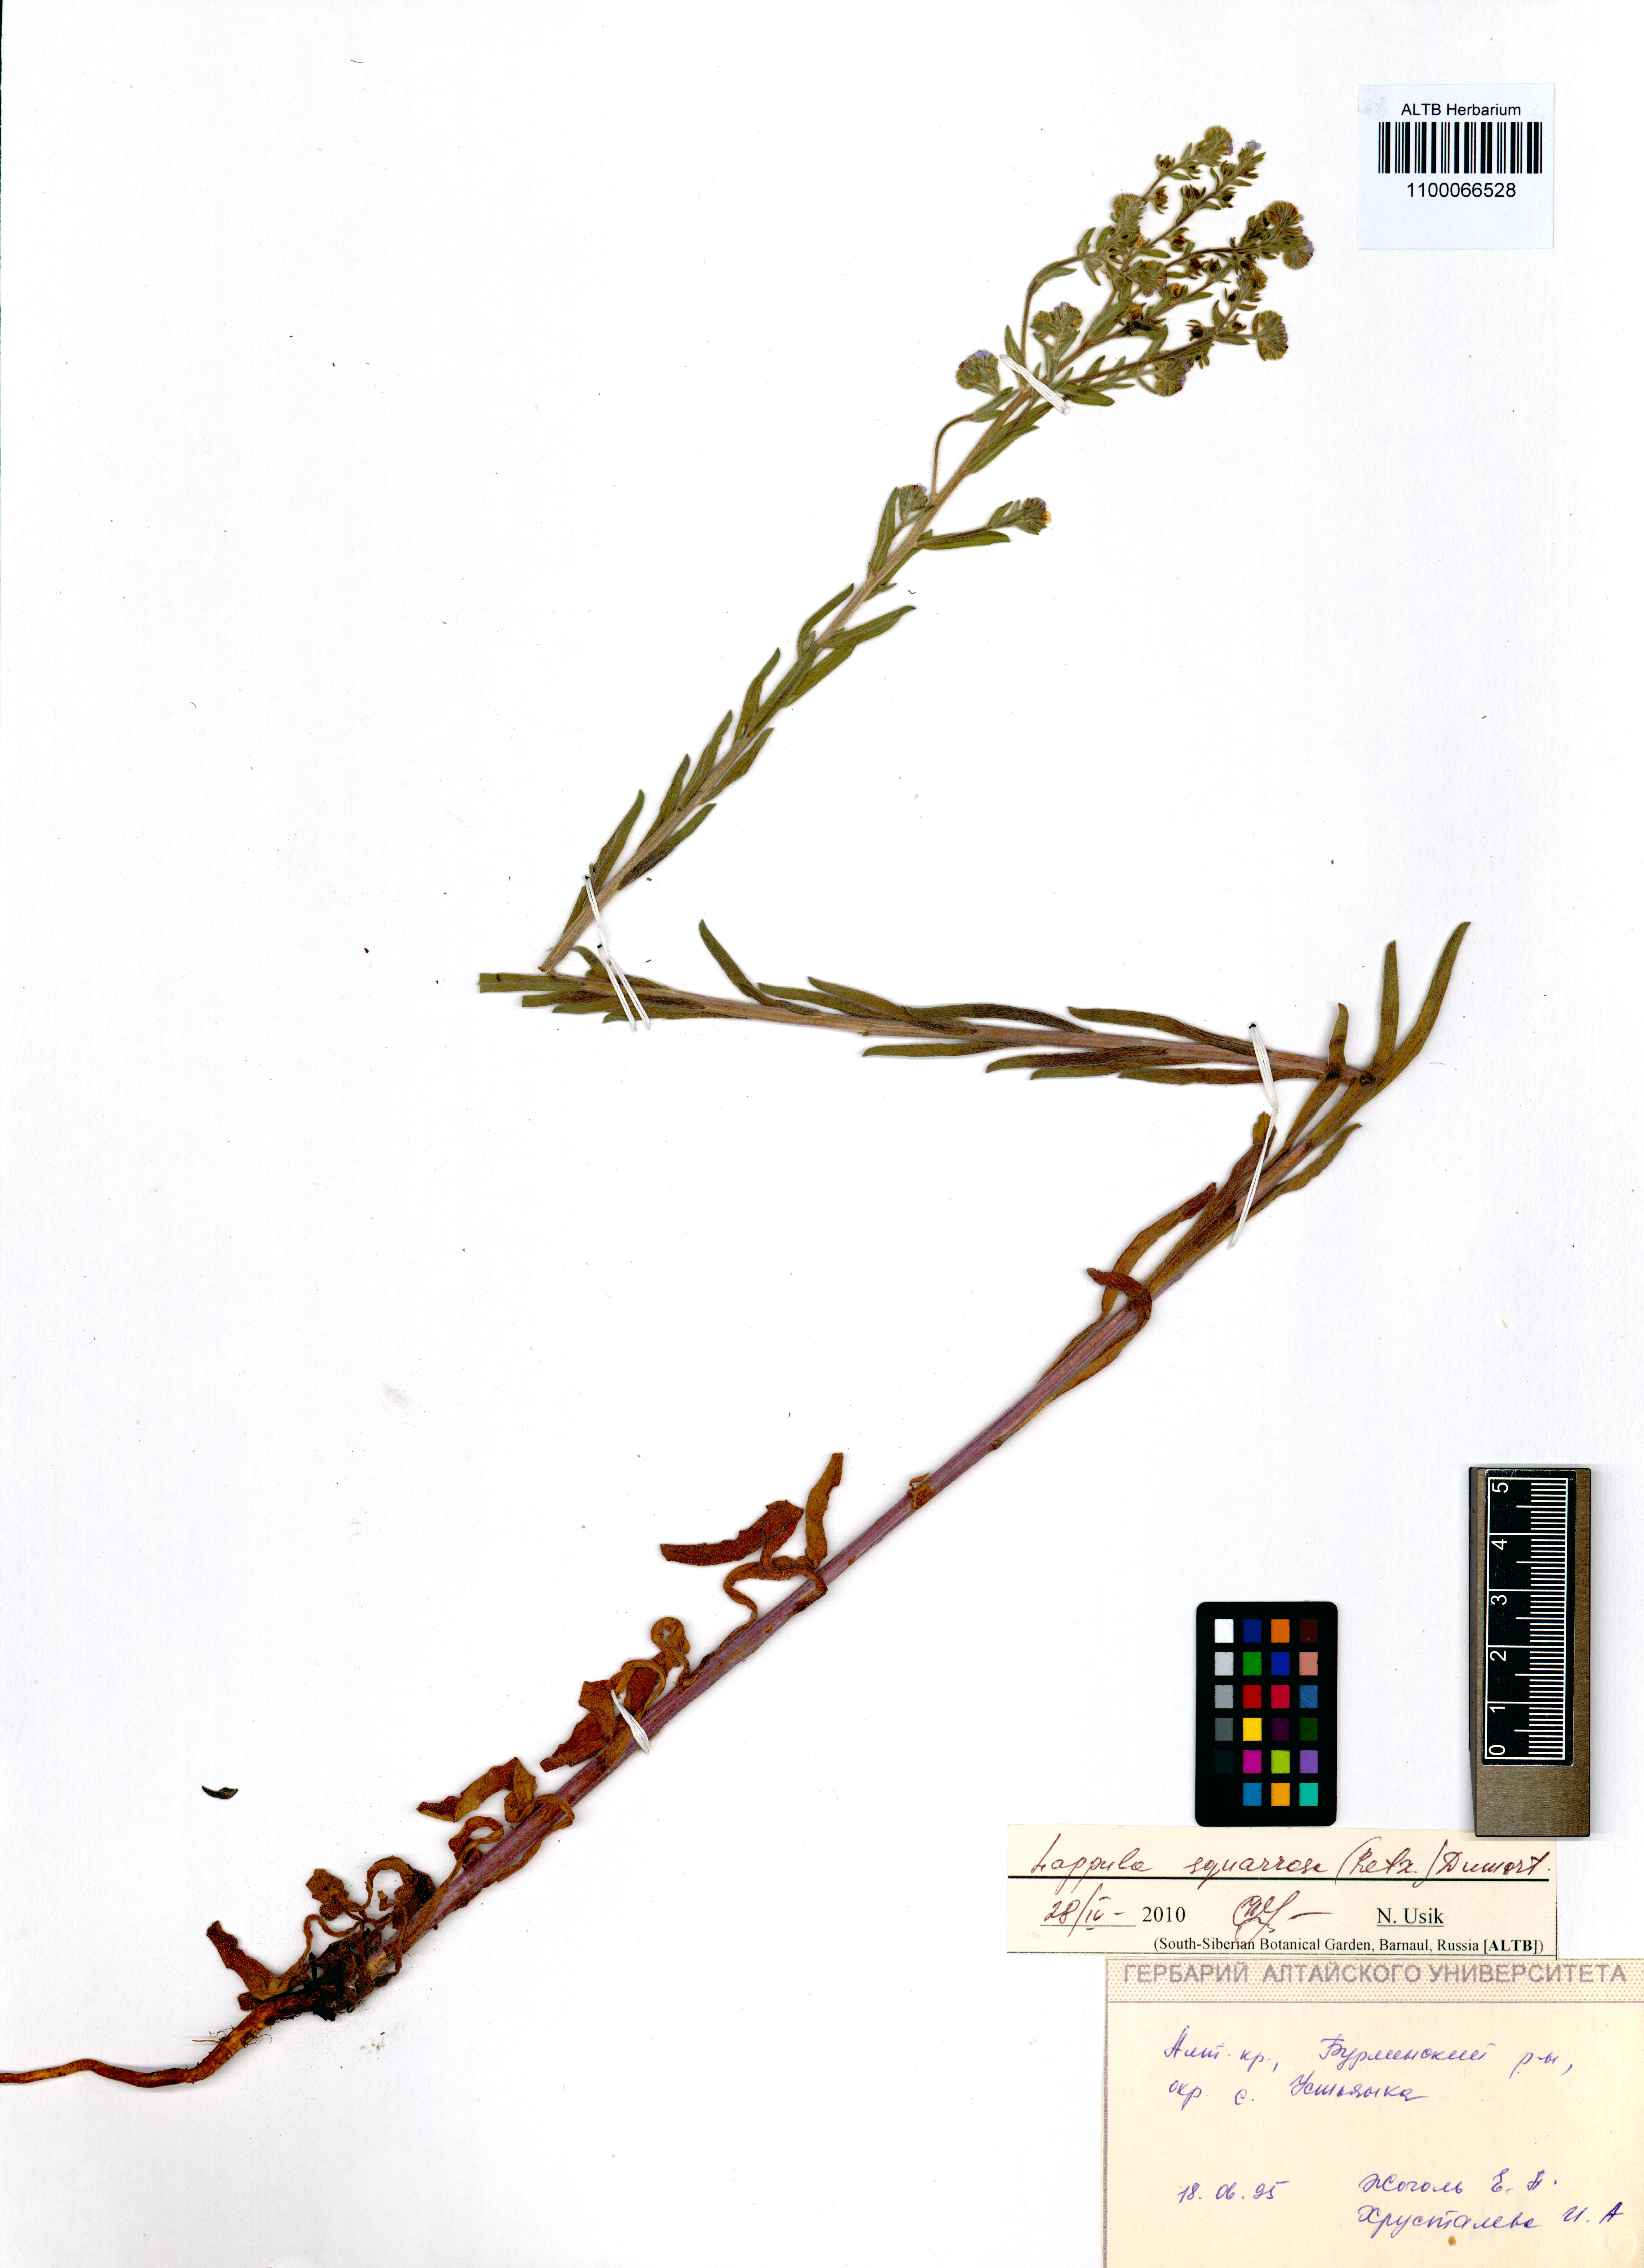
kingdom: Plantae
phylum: Tracheophyta
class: Magnoliopsida
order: Boraginales
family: Boraginaceae
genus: Lappula
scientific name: Lappula squarrosa
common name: European stickseed
